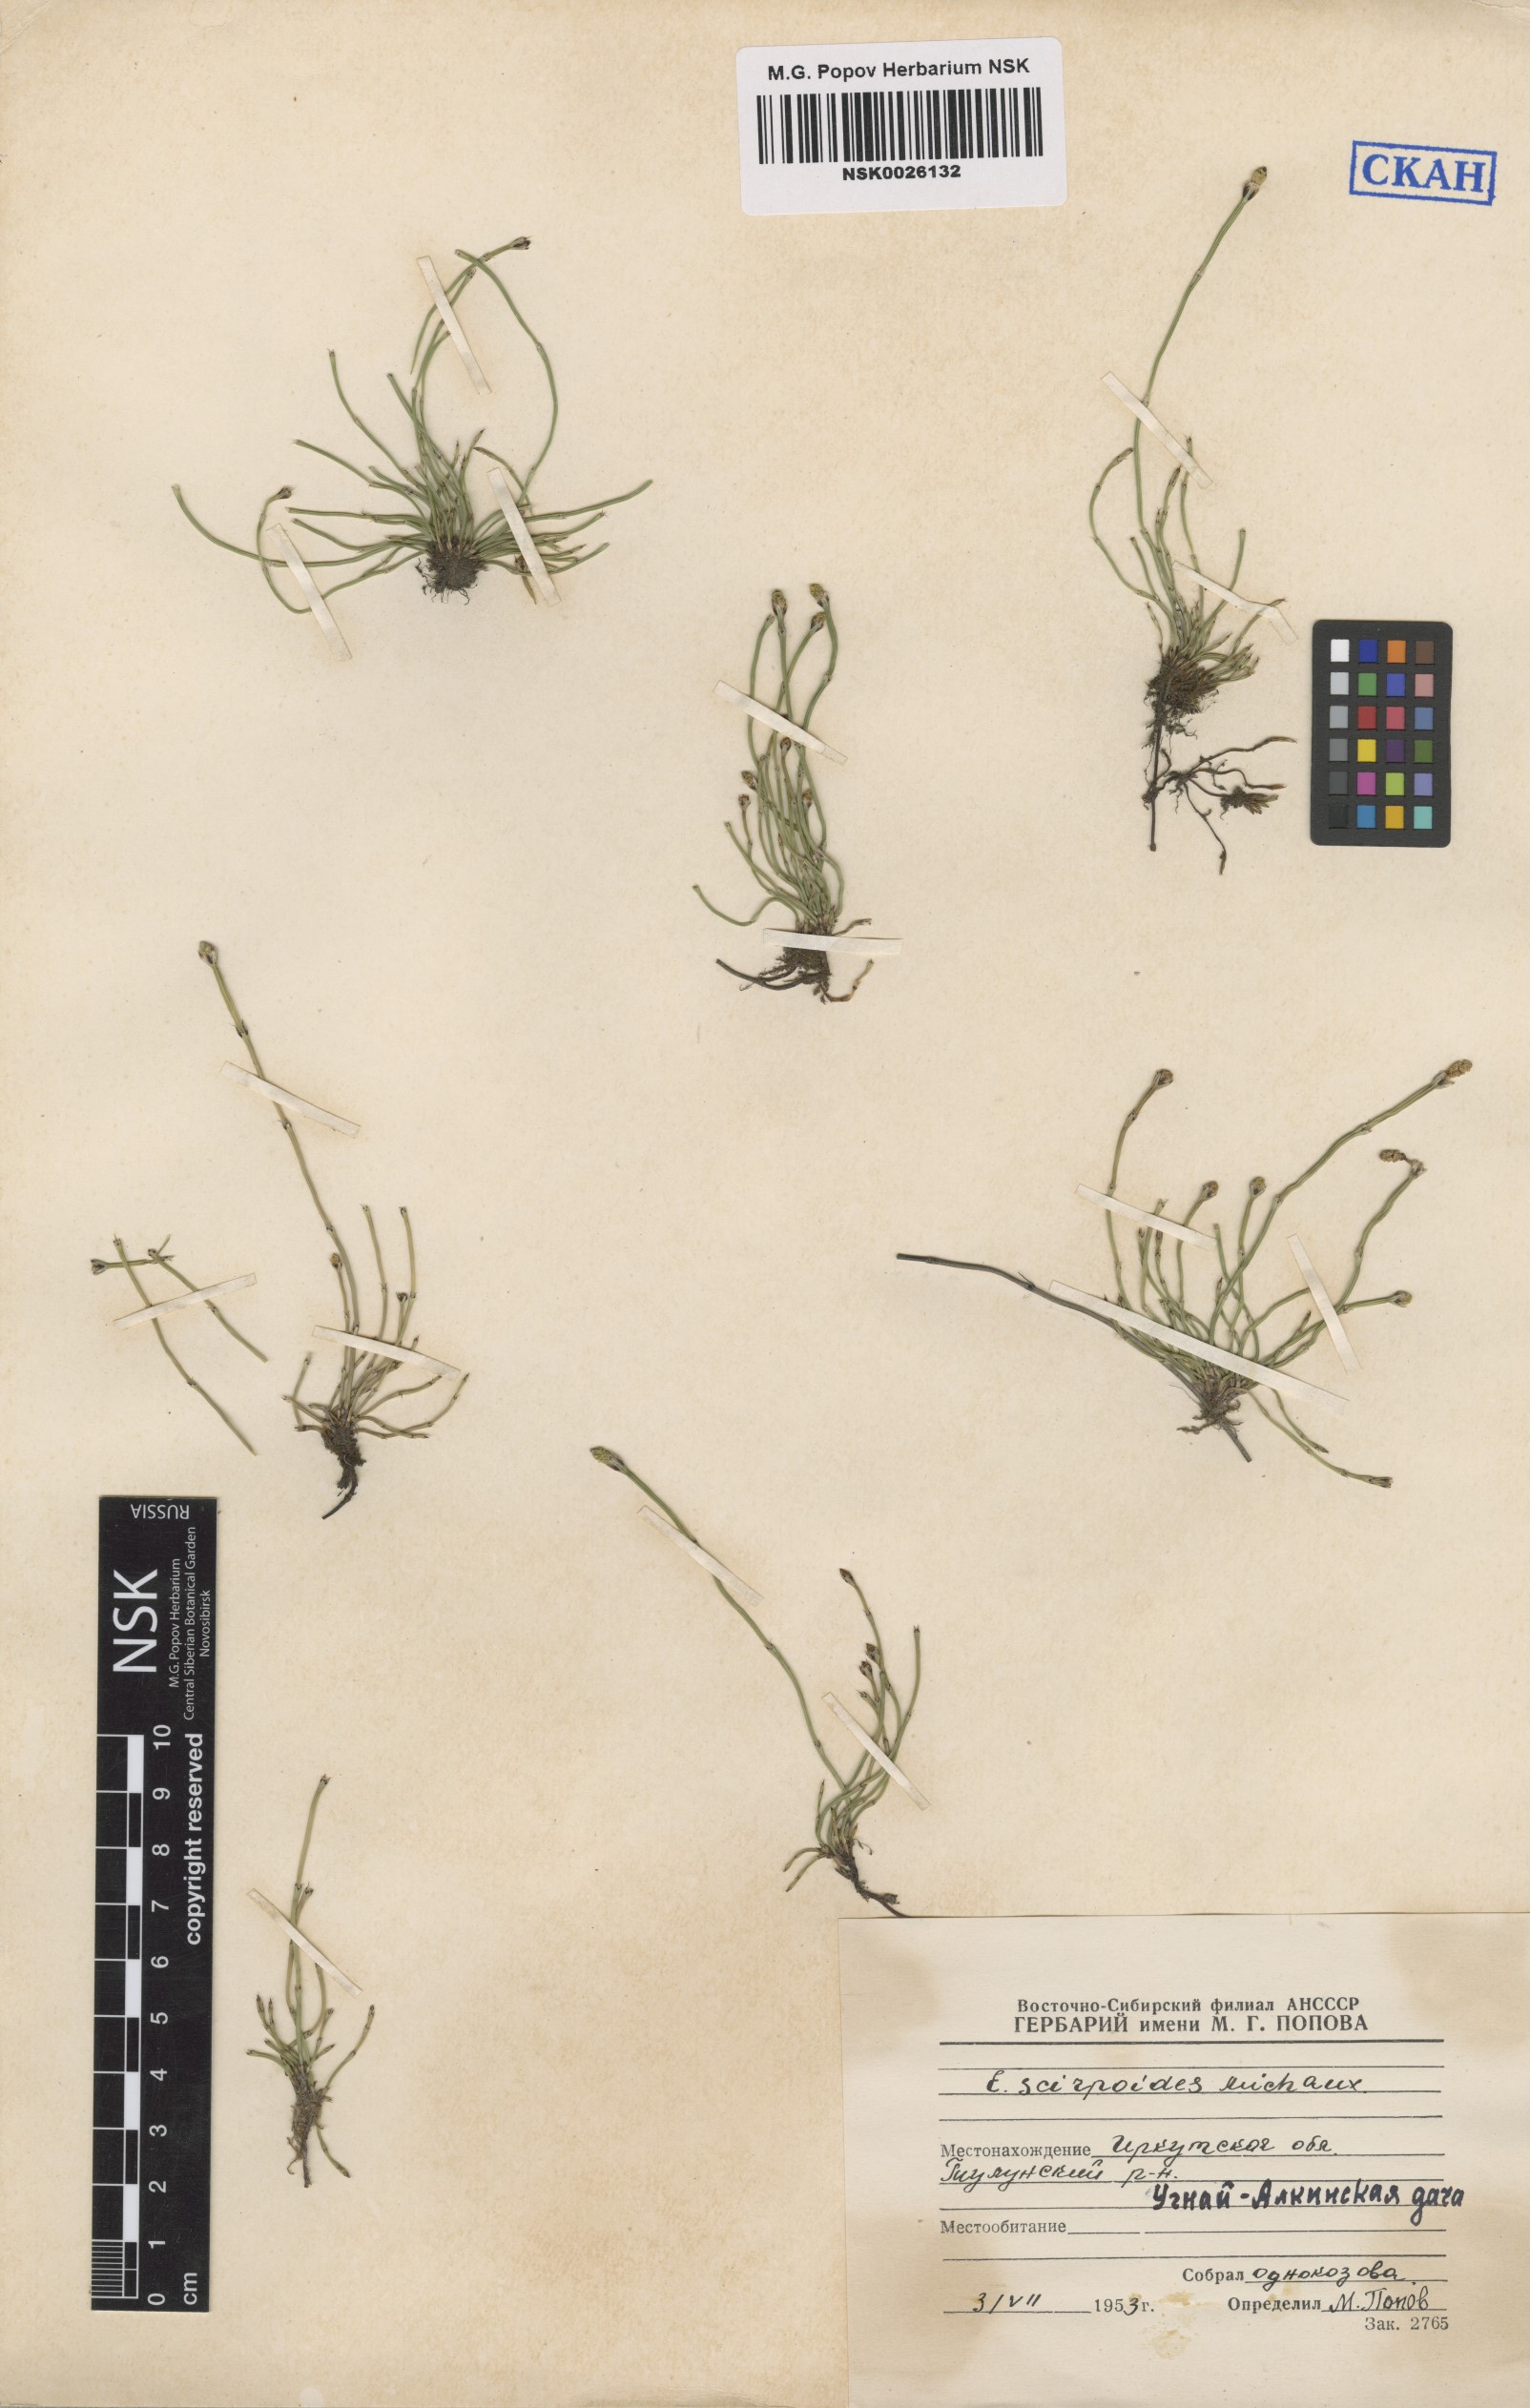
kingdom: Plantae
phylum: Tracheophyta
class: Polypodiopsida
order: Equisetales
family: Equisetaceae
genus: Equisetum
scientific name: Equisetum scirpoides
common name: Delicate horsetail
